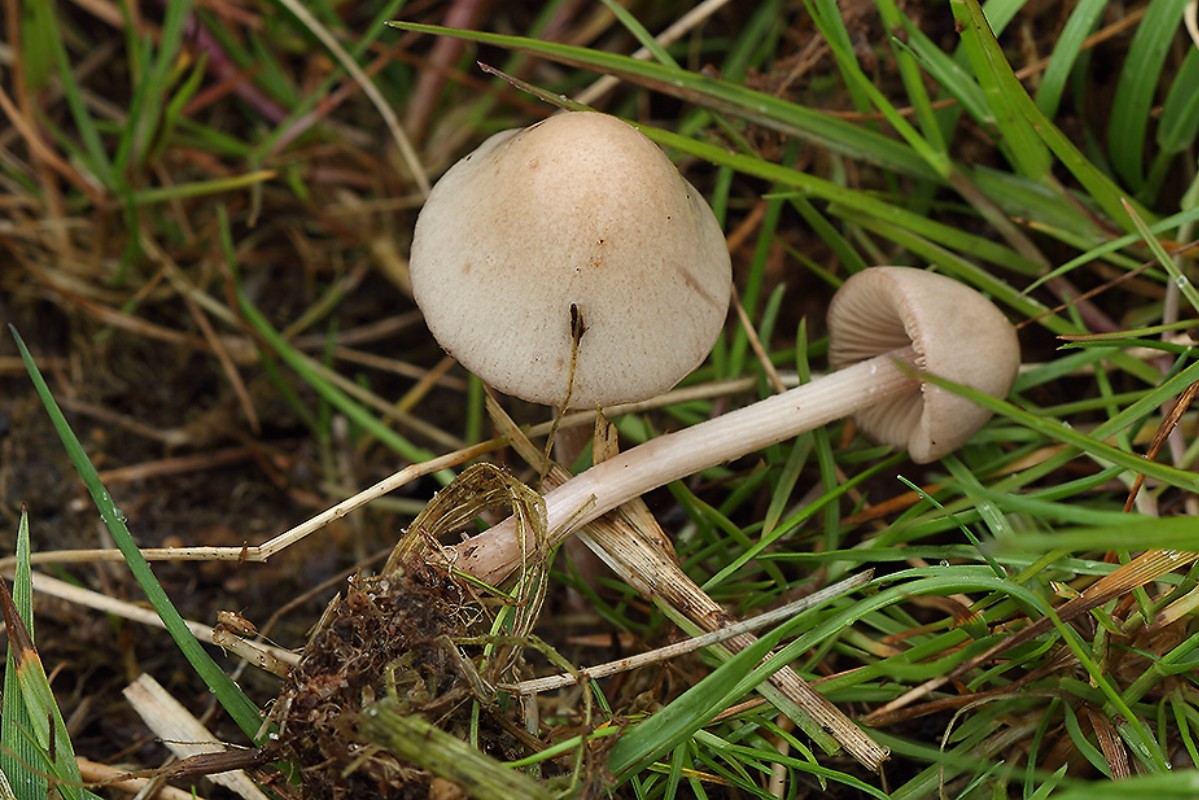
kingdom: Fungi
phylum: Basidiomycota
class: Agaricomycetes
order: Agaricales
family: Bolbitiaceae
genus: Conocybe
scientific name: Conocybe rickenii
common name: møg-keglehat
